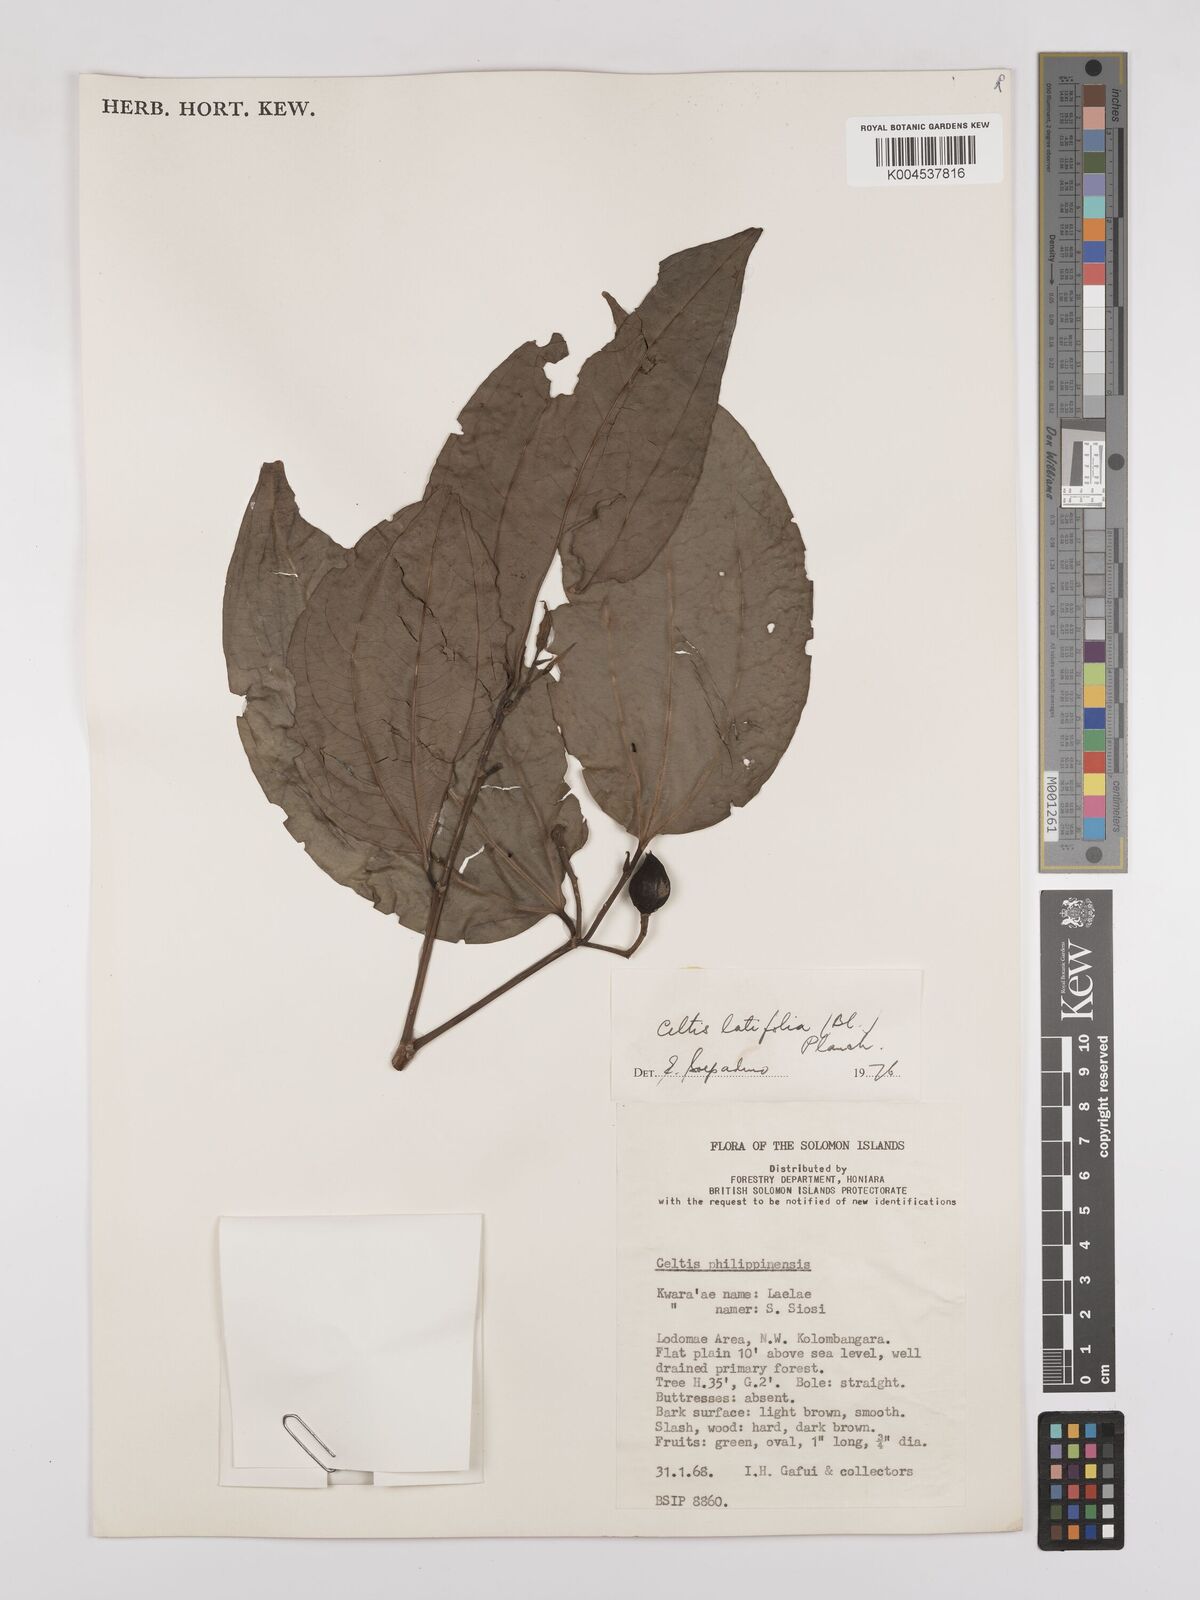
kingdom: Plantae
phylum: Tracheophyta
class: Magnoliopsida
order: Rosales
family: Cannabaceae
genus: Celtis
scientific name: Celtis latifolia
